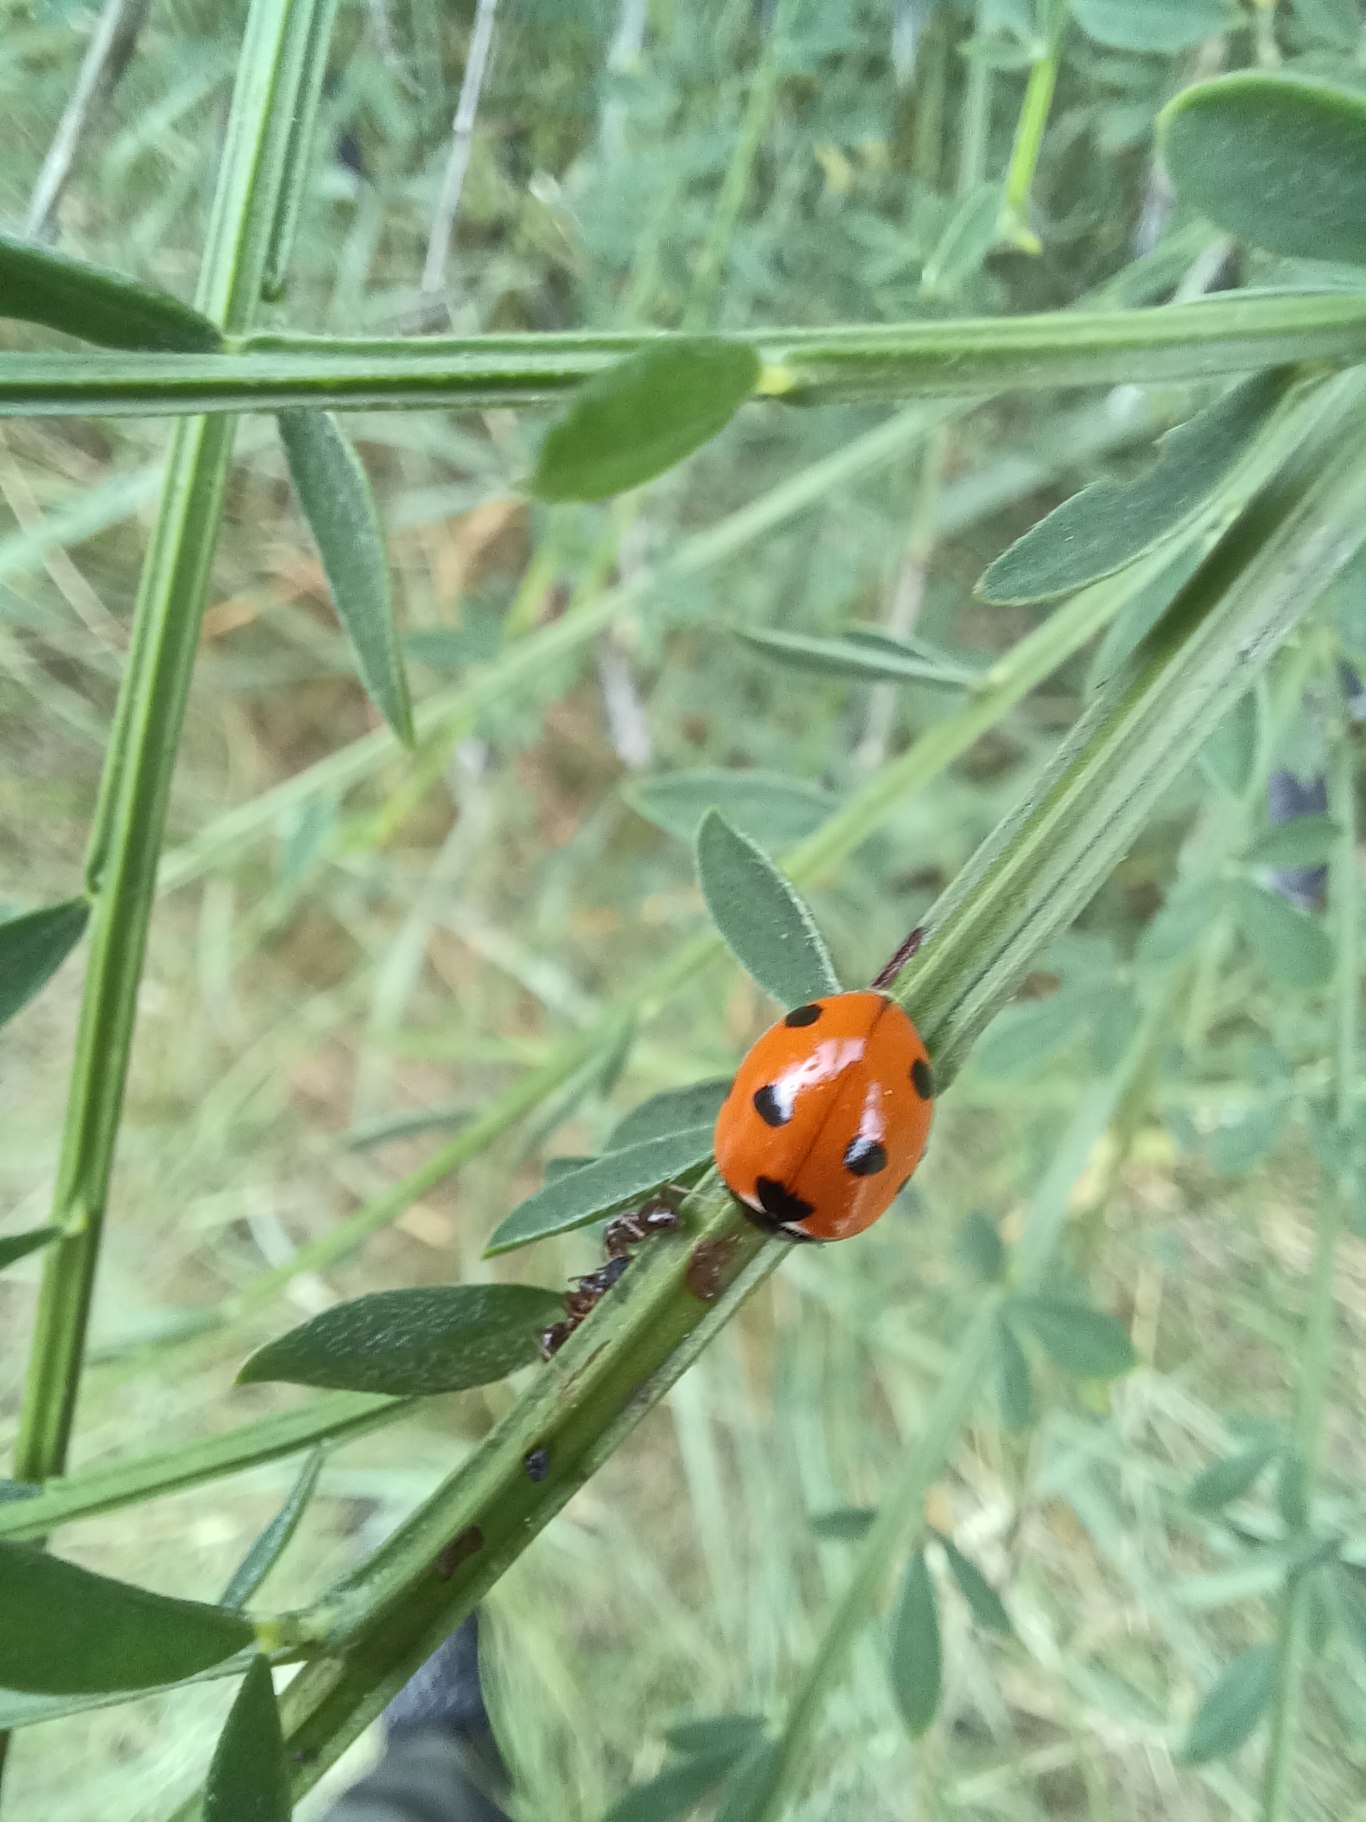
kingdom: Animalia
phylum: Arthropoda
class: Insecta
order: Coleoptera
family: Coccinellidae
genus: Coccinella
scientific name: Coccinella septempunctata
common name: Syvplettet mariehøne
